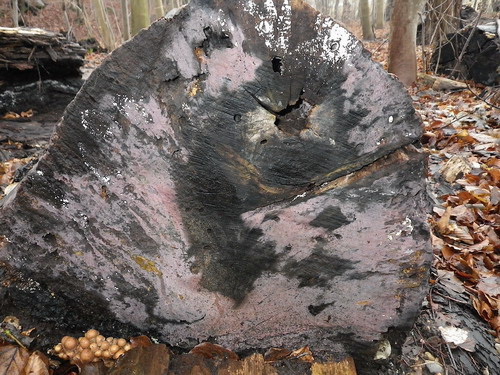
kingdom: Fungi
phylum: Basidiomycota
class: Agaricomycetes
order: Cantharellales
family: Tulasnellaceae
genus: Tulasnella
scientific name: Tulasnella violea
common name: violet ballonhinde
